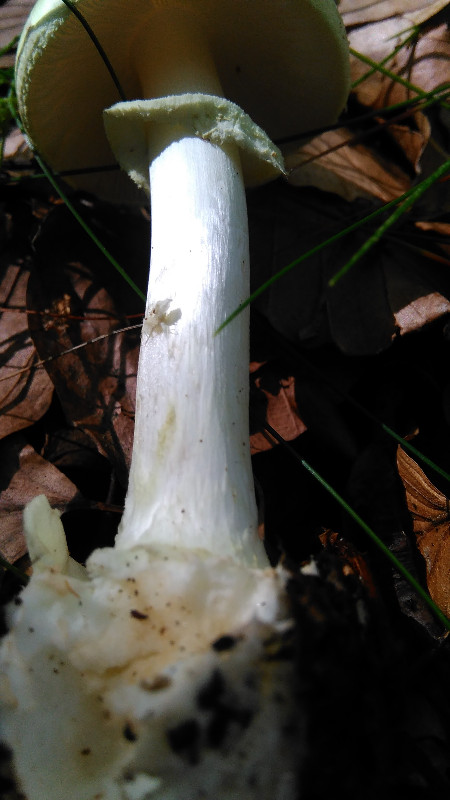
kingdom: Fungi
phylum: Basidiomycota
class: Agaricomycetes
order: Agaricales
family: Amanitaceae
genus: Amanita
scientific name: Amanita citrina
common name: kugleknoldet fluesvamp
